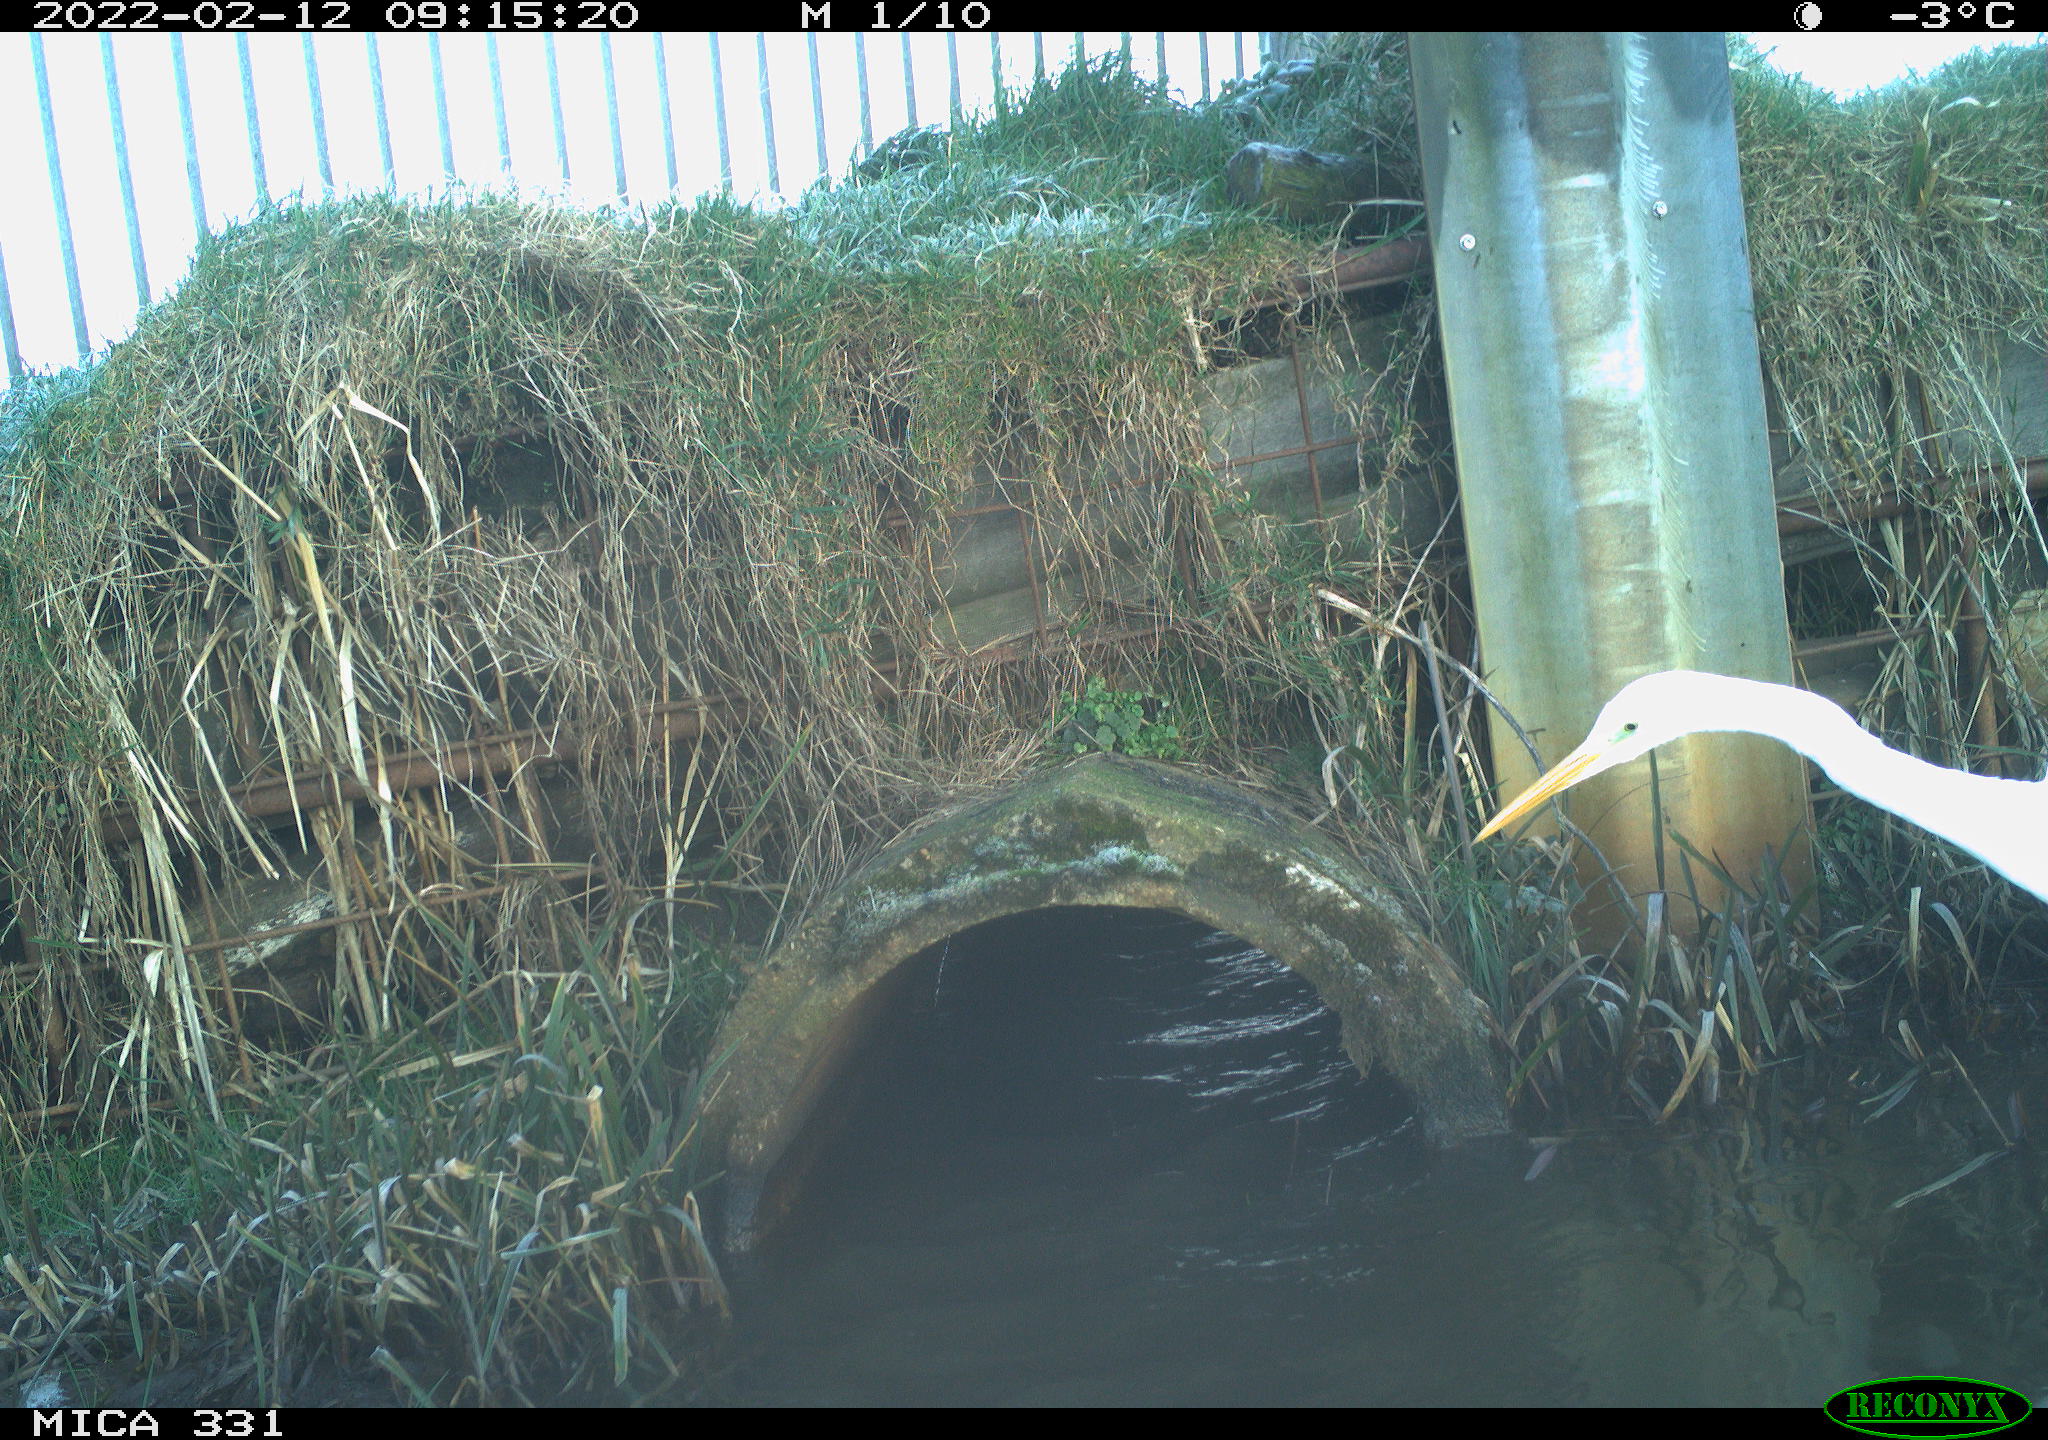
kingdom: Animalia
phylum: Chordata
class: Aves
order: Pelecaniformes
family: Ardeidae
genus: Ardea
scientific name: Ardea alba
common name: Great egret
